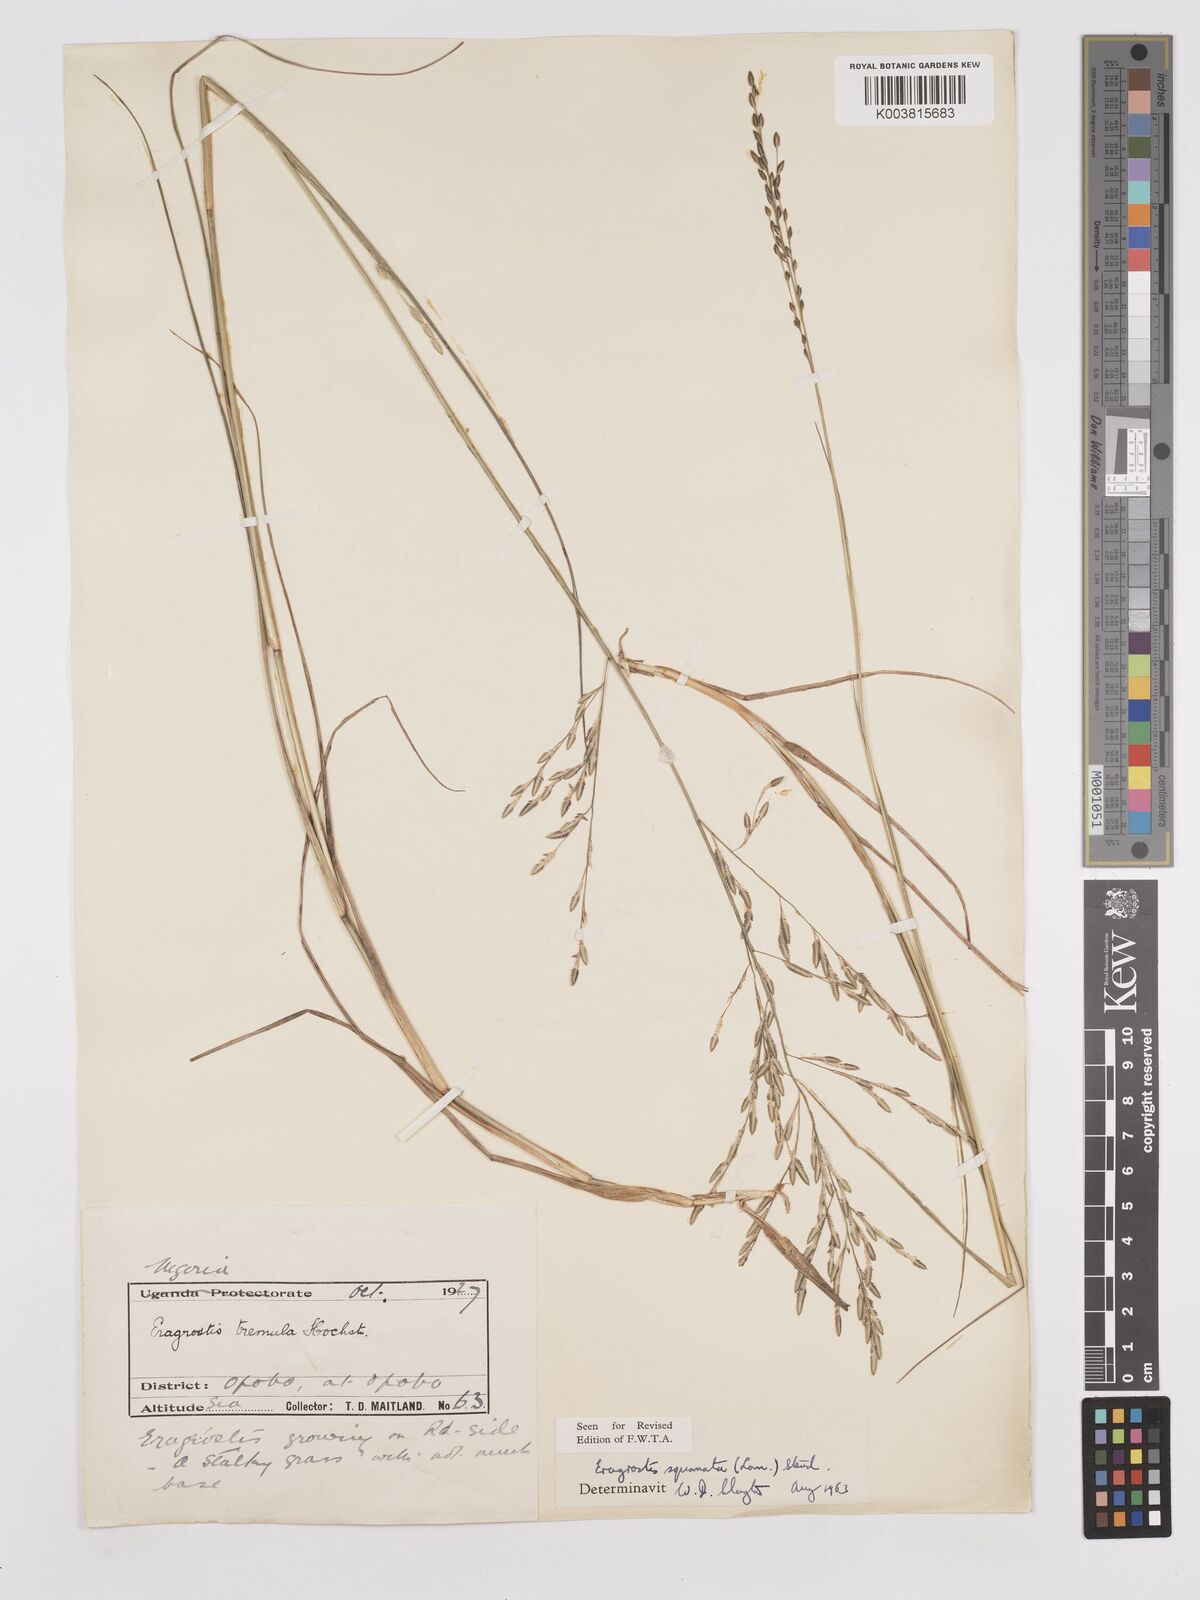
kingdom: Plantae
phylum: Tracheophyta
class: Liliopsida
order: Poales
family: Poaceae
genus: Eragrostis
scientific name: Eragrostis squamata
